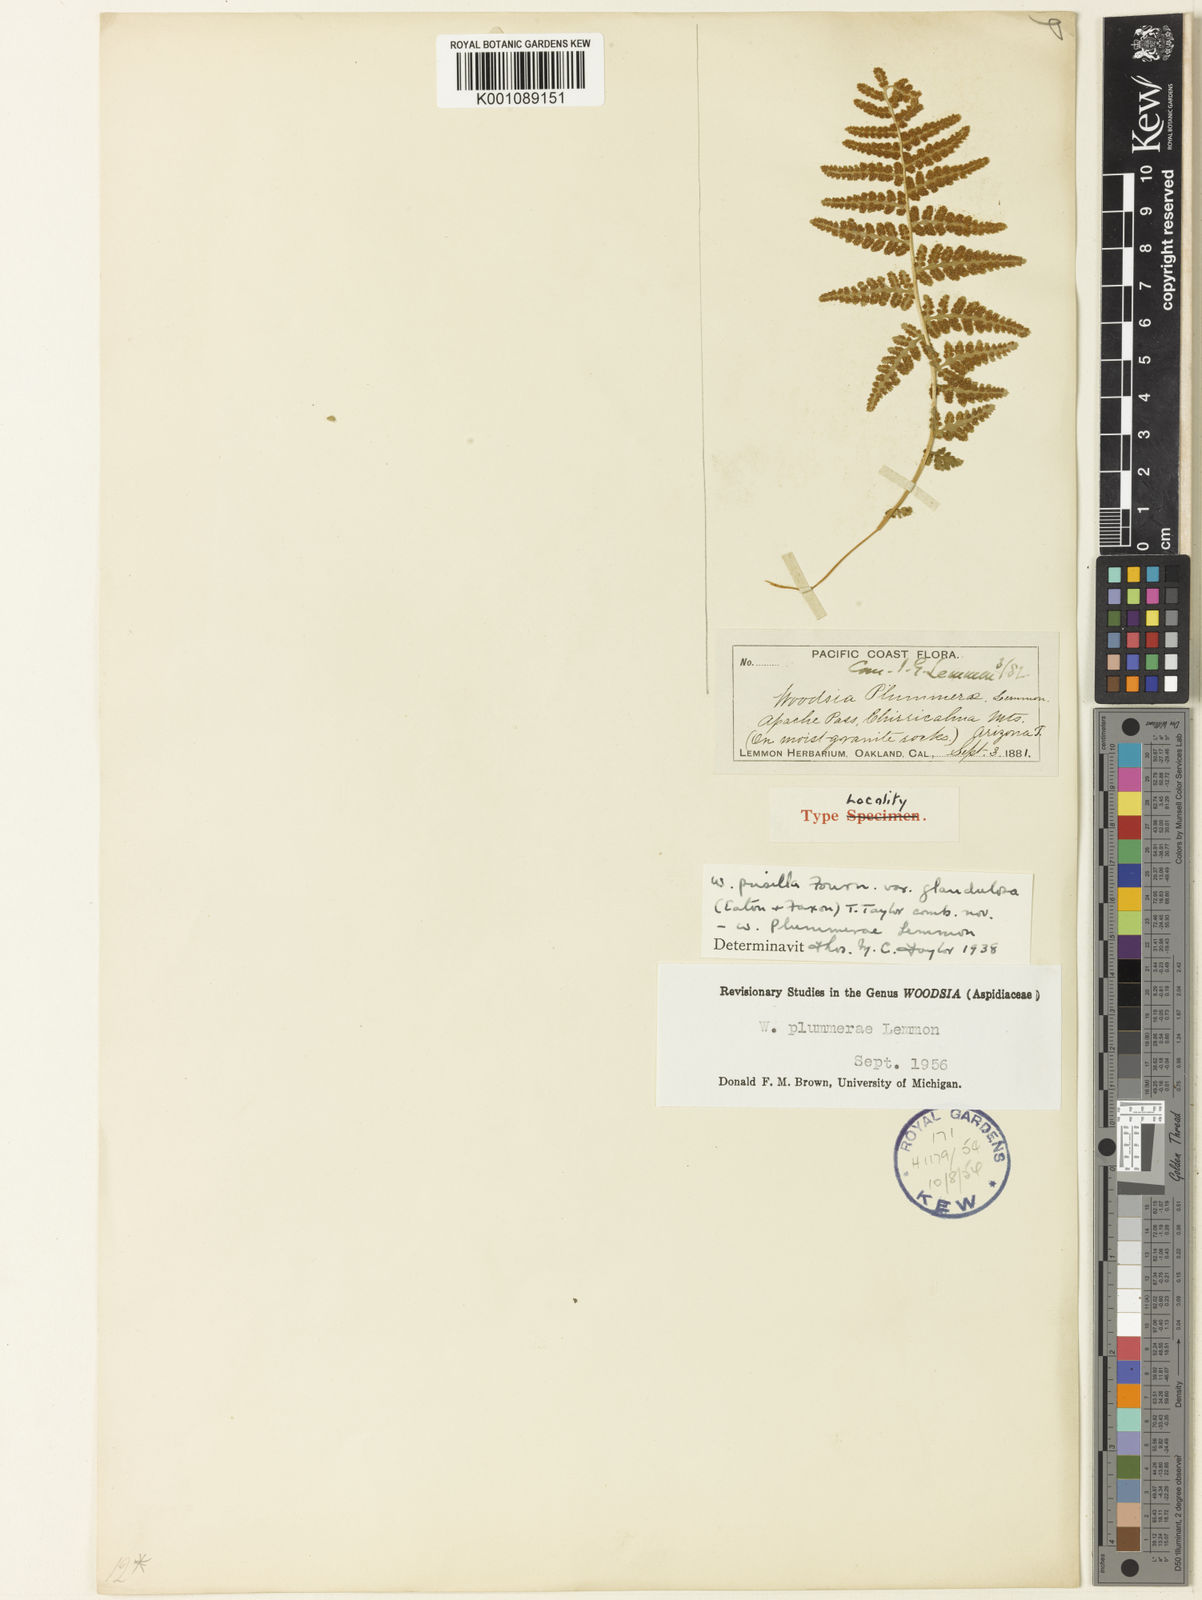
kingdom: Plantae
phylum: Tracheophyta
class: Polypodiopsida
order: Polypodiales
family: Woodsiaceae
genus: Physematium
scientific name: Physematium plummerae
